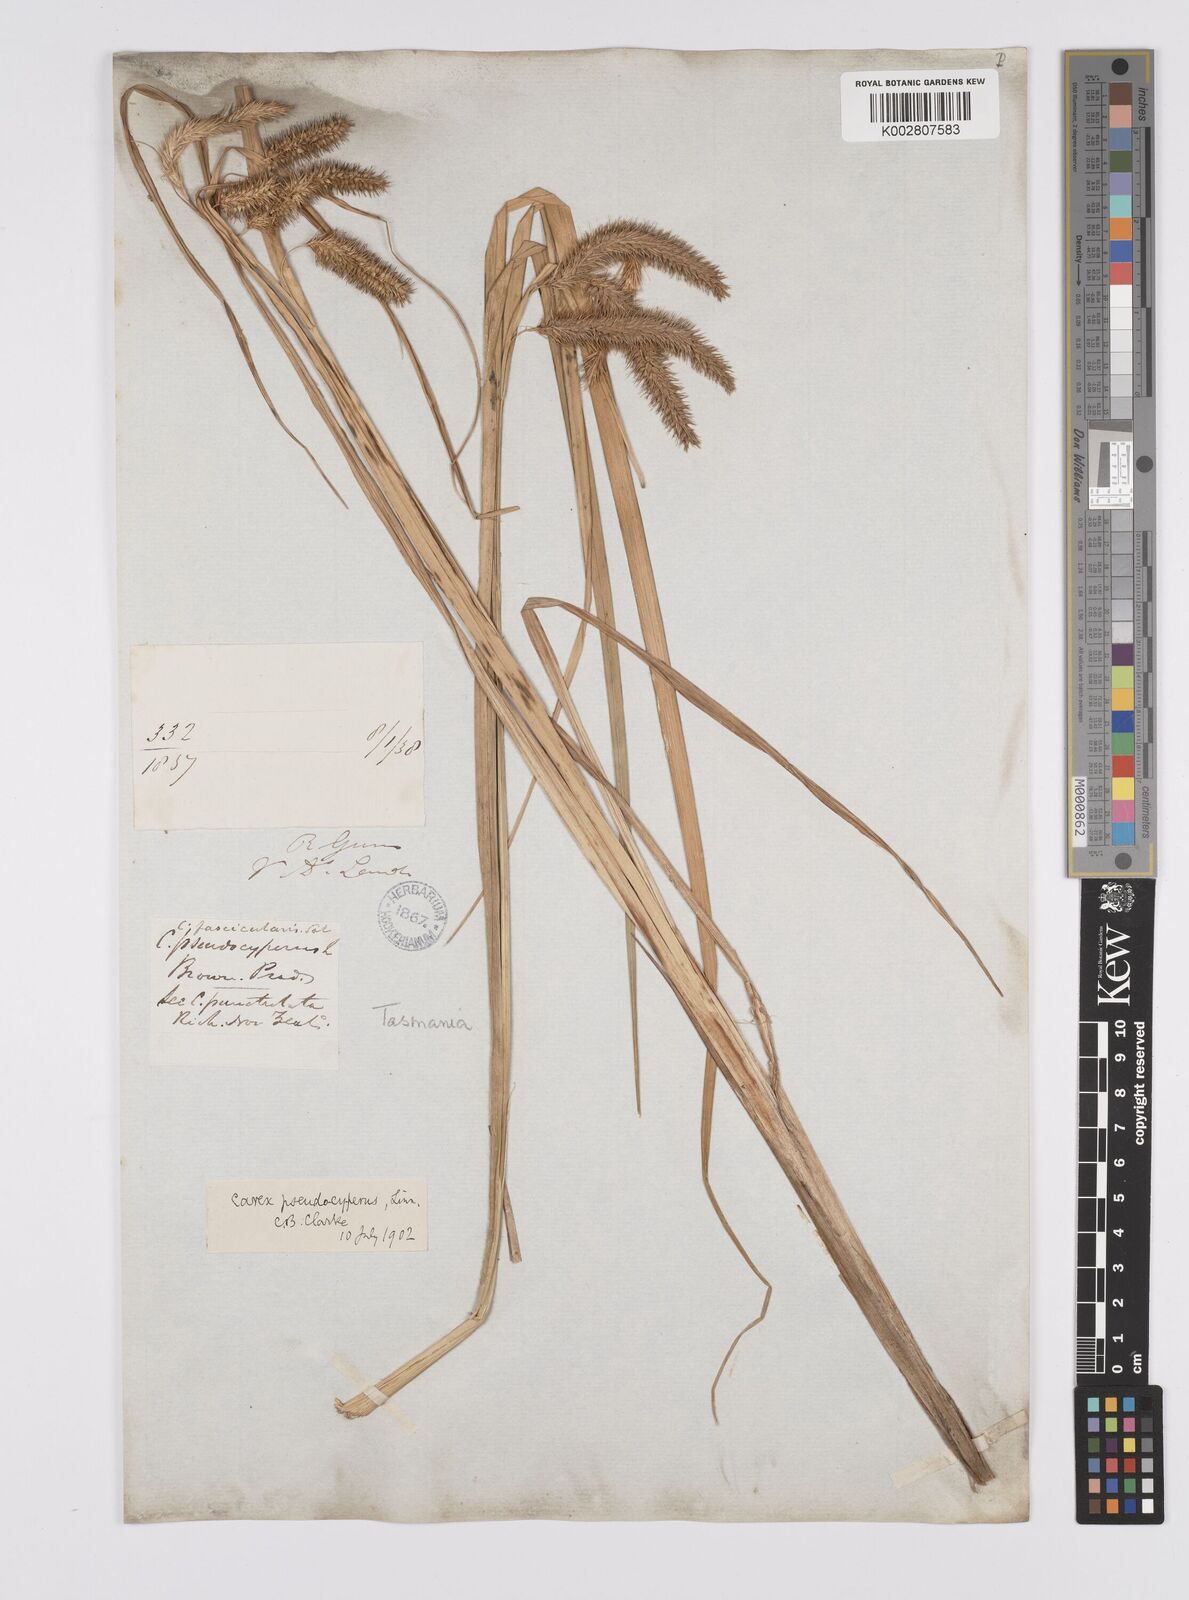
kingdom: Plantae
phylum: Tracheophyta
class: Liliopsida
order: Poales
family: Cyperaceae
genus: Carex
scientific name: Carex fascicularis
